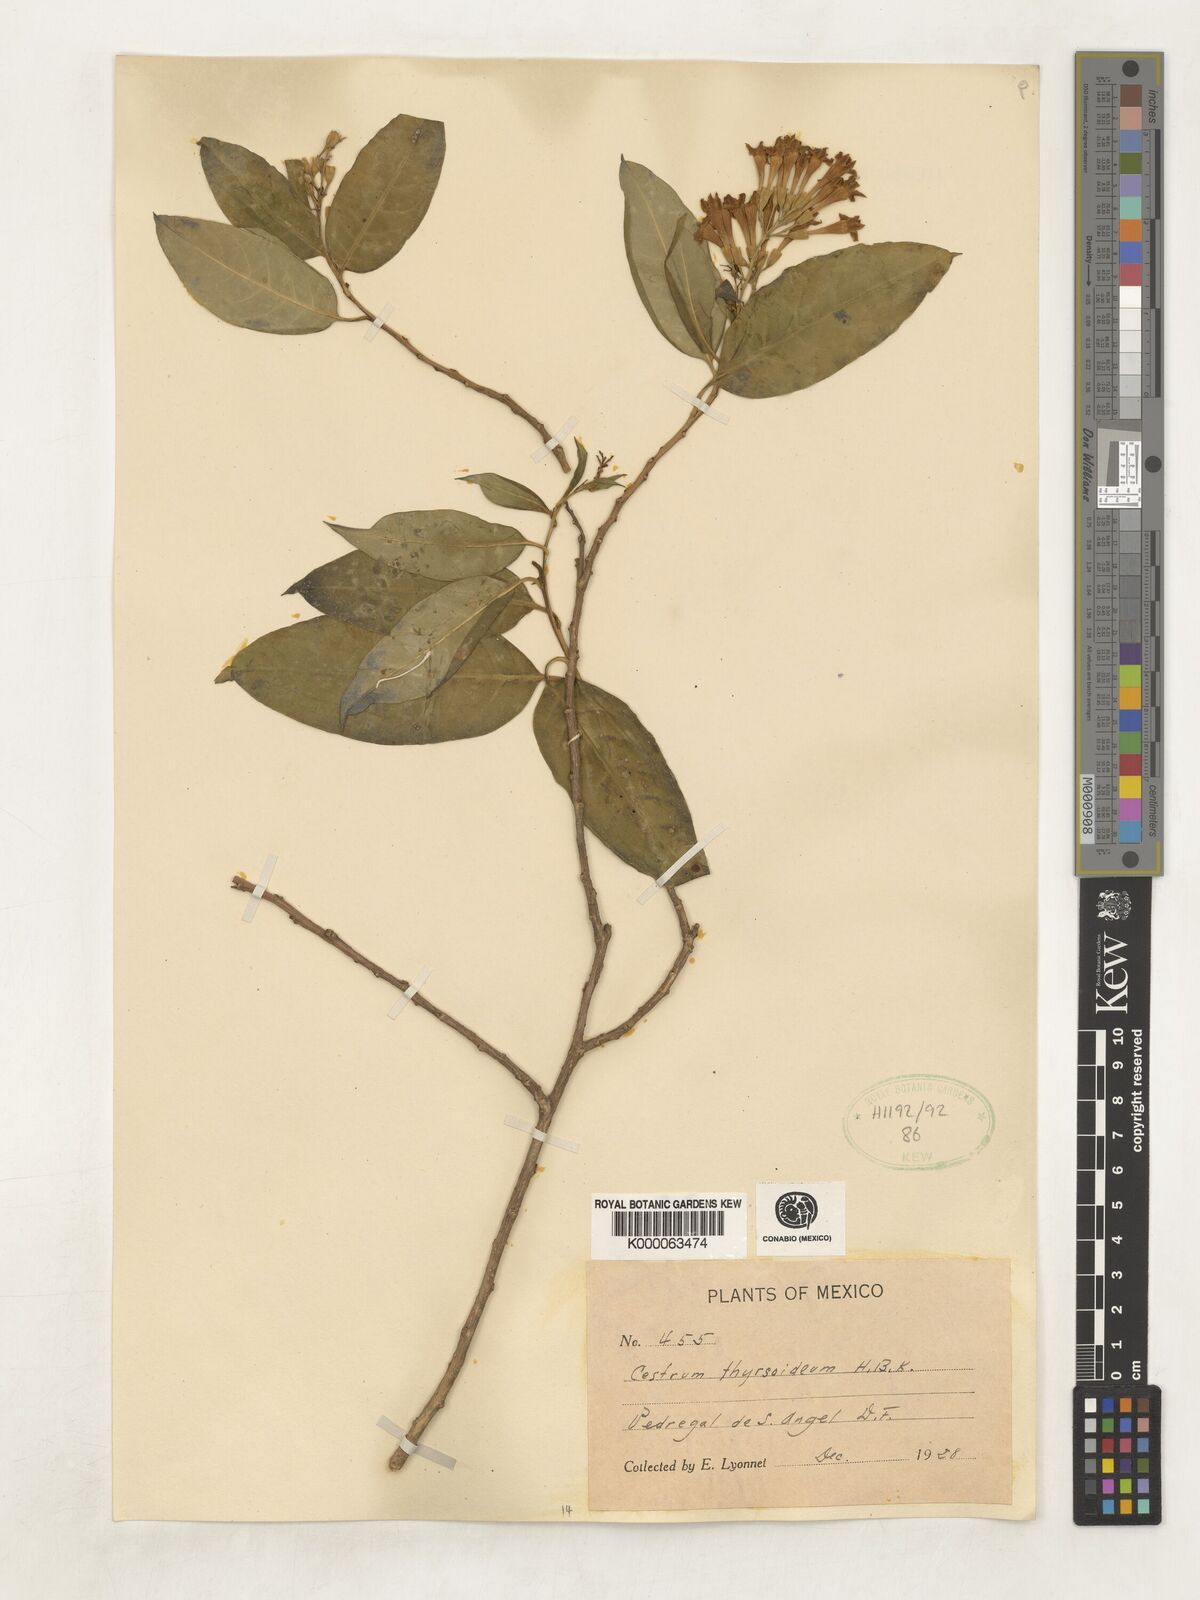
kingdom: Plantae
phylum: Tracheophyta
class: Magnoliopsida
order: Solanales
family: Solanaceae
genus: Cestrum
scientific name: Cestrum
